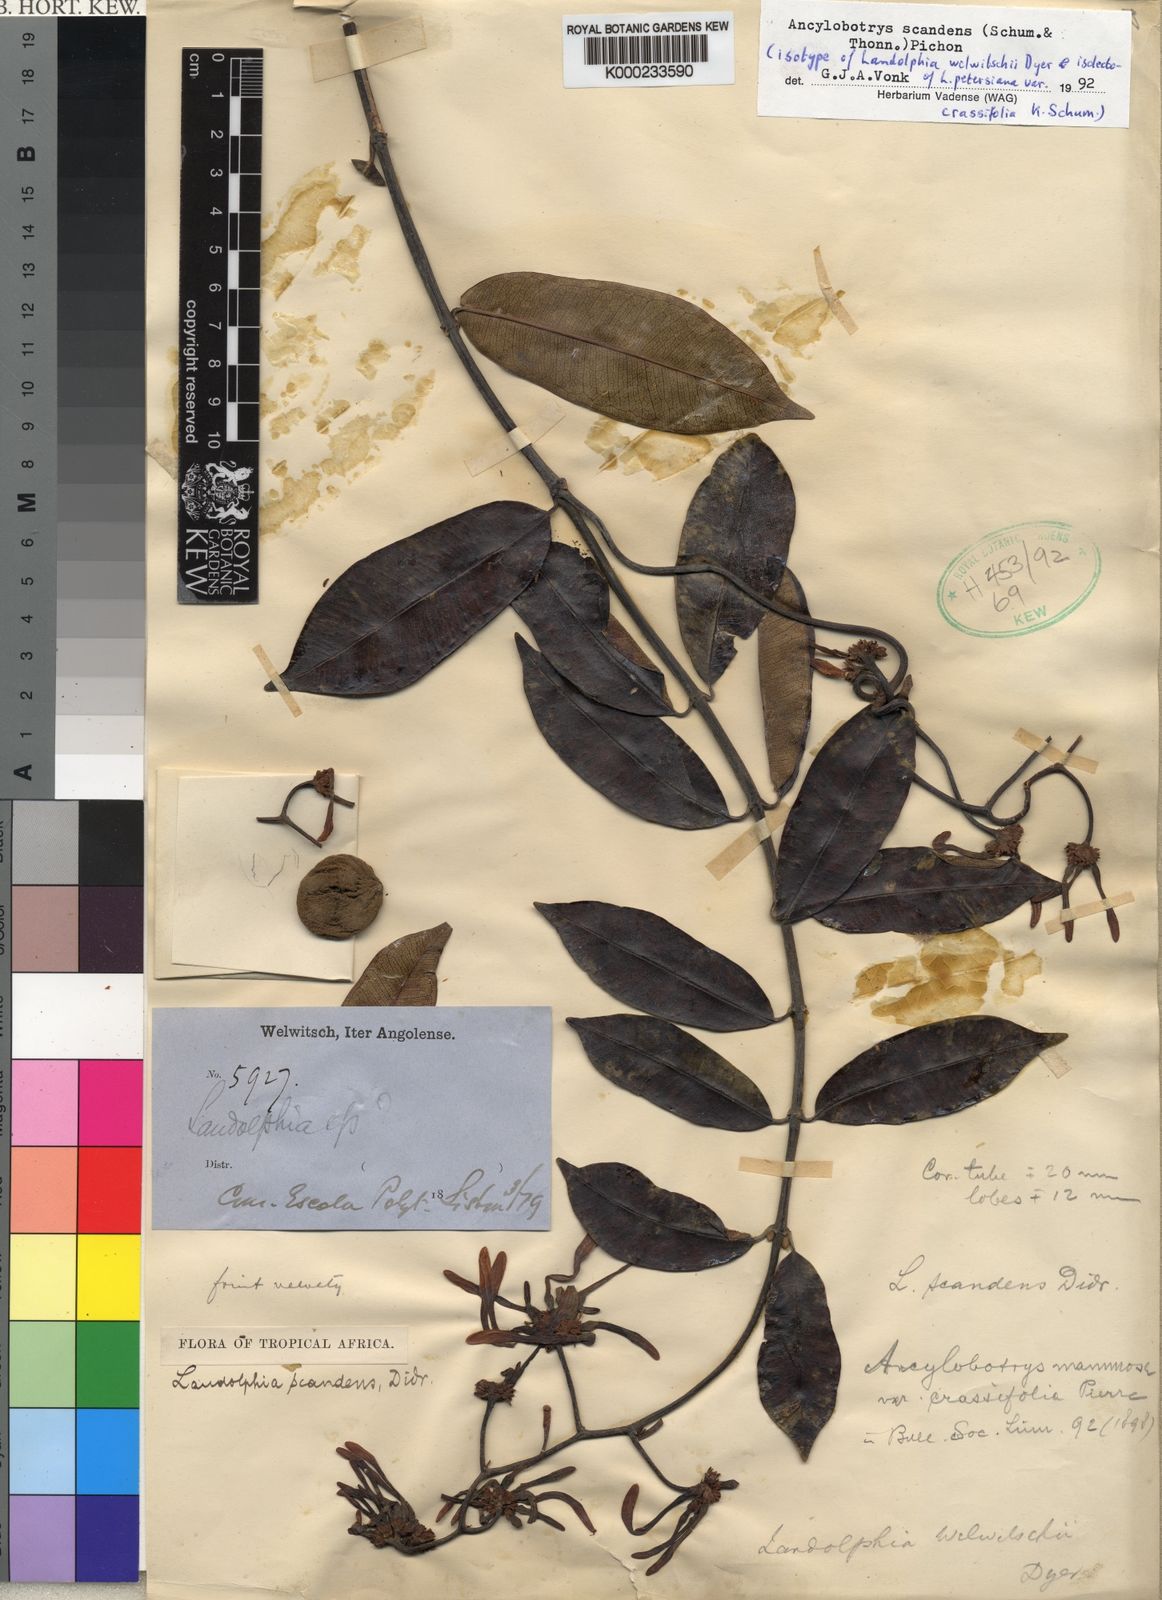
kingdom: Plantae
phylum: Tracheophyta
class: Magnoliopsida
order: Gentianales
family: Apocynaceae
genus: Ancylobothrys
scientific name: Ancylobothrys scandens
